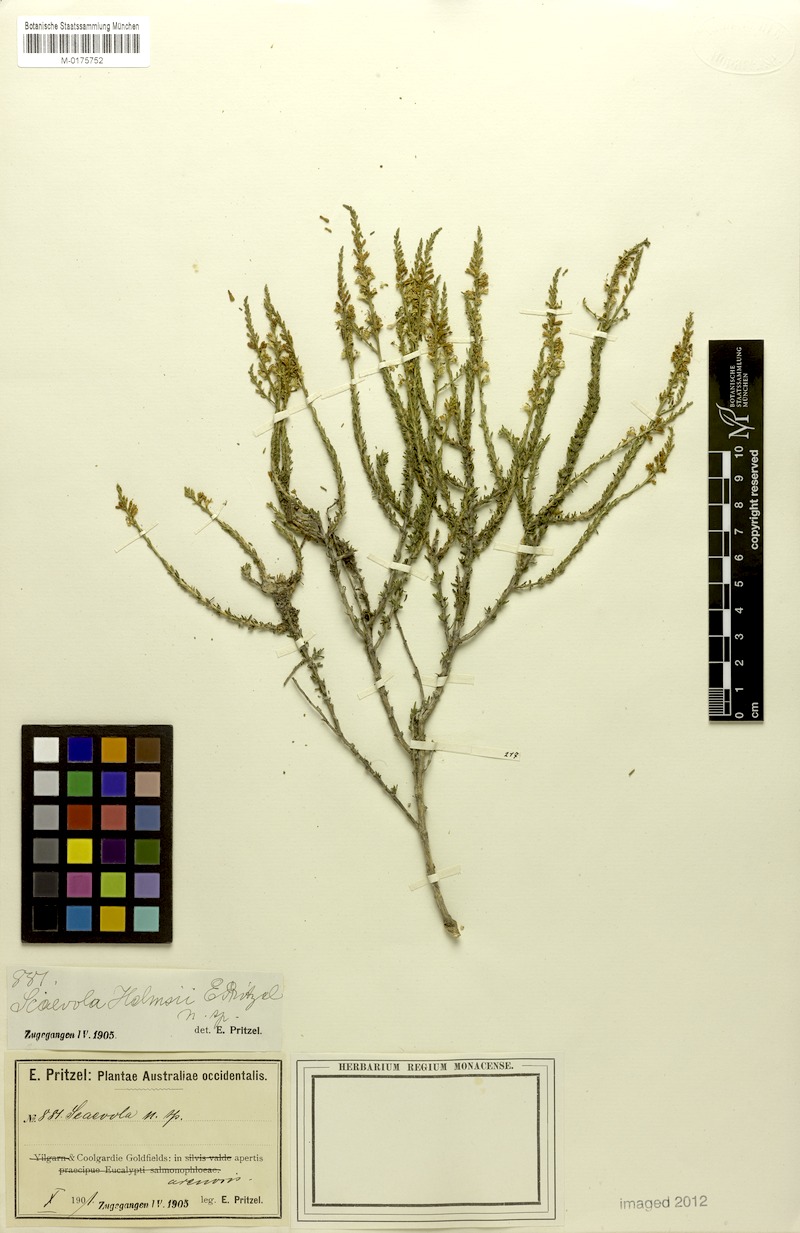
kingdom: Plantae
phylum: Tracheophyta
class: Magnoliopsida
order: Asterales
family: Goodeniaceae
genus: Goodenia
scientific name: Goodenia helmsii
